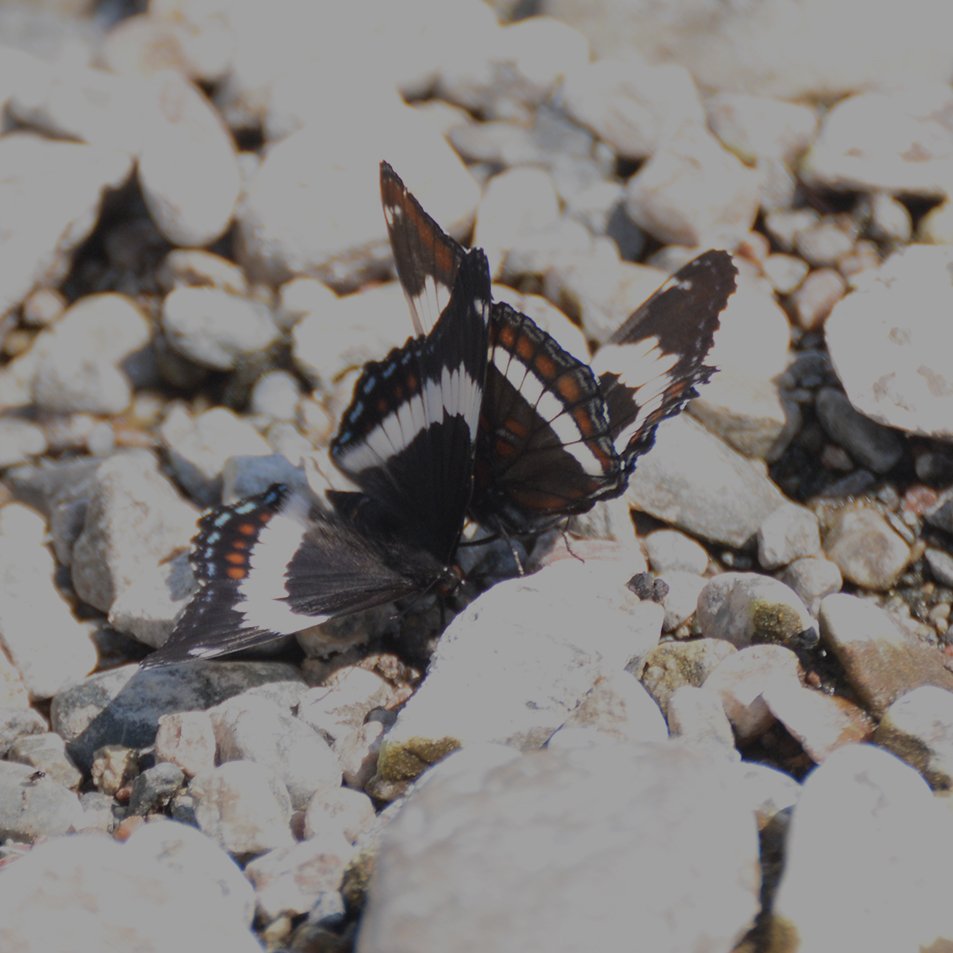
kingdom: Animalia
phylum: Arthropoda
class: Insecta
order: Lepidoptera
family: Nymphalidae
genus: Limenitis
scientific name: Limenitis arthemis
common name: Red-spotted Admiral
